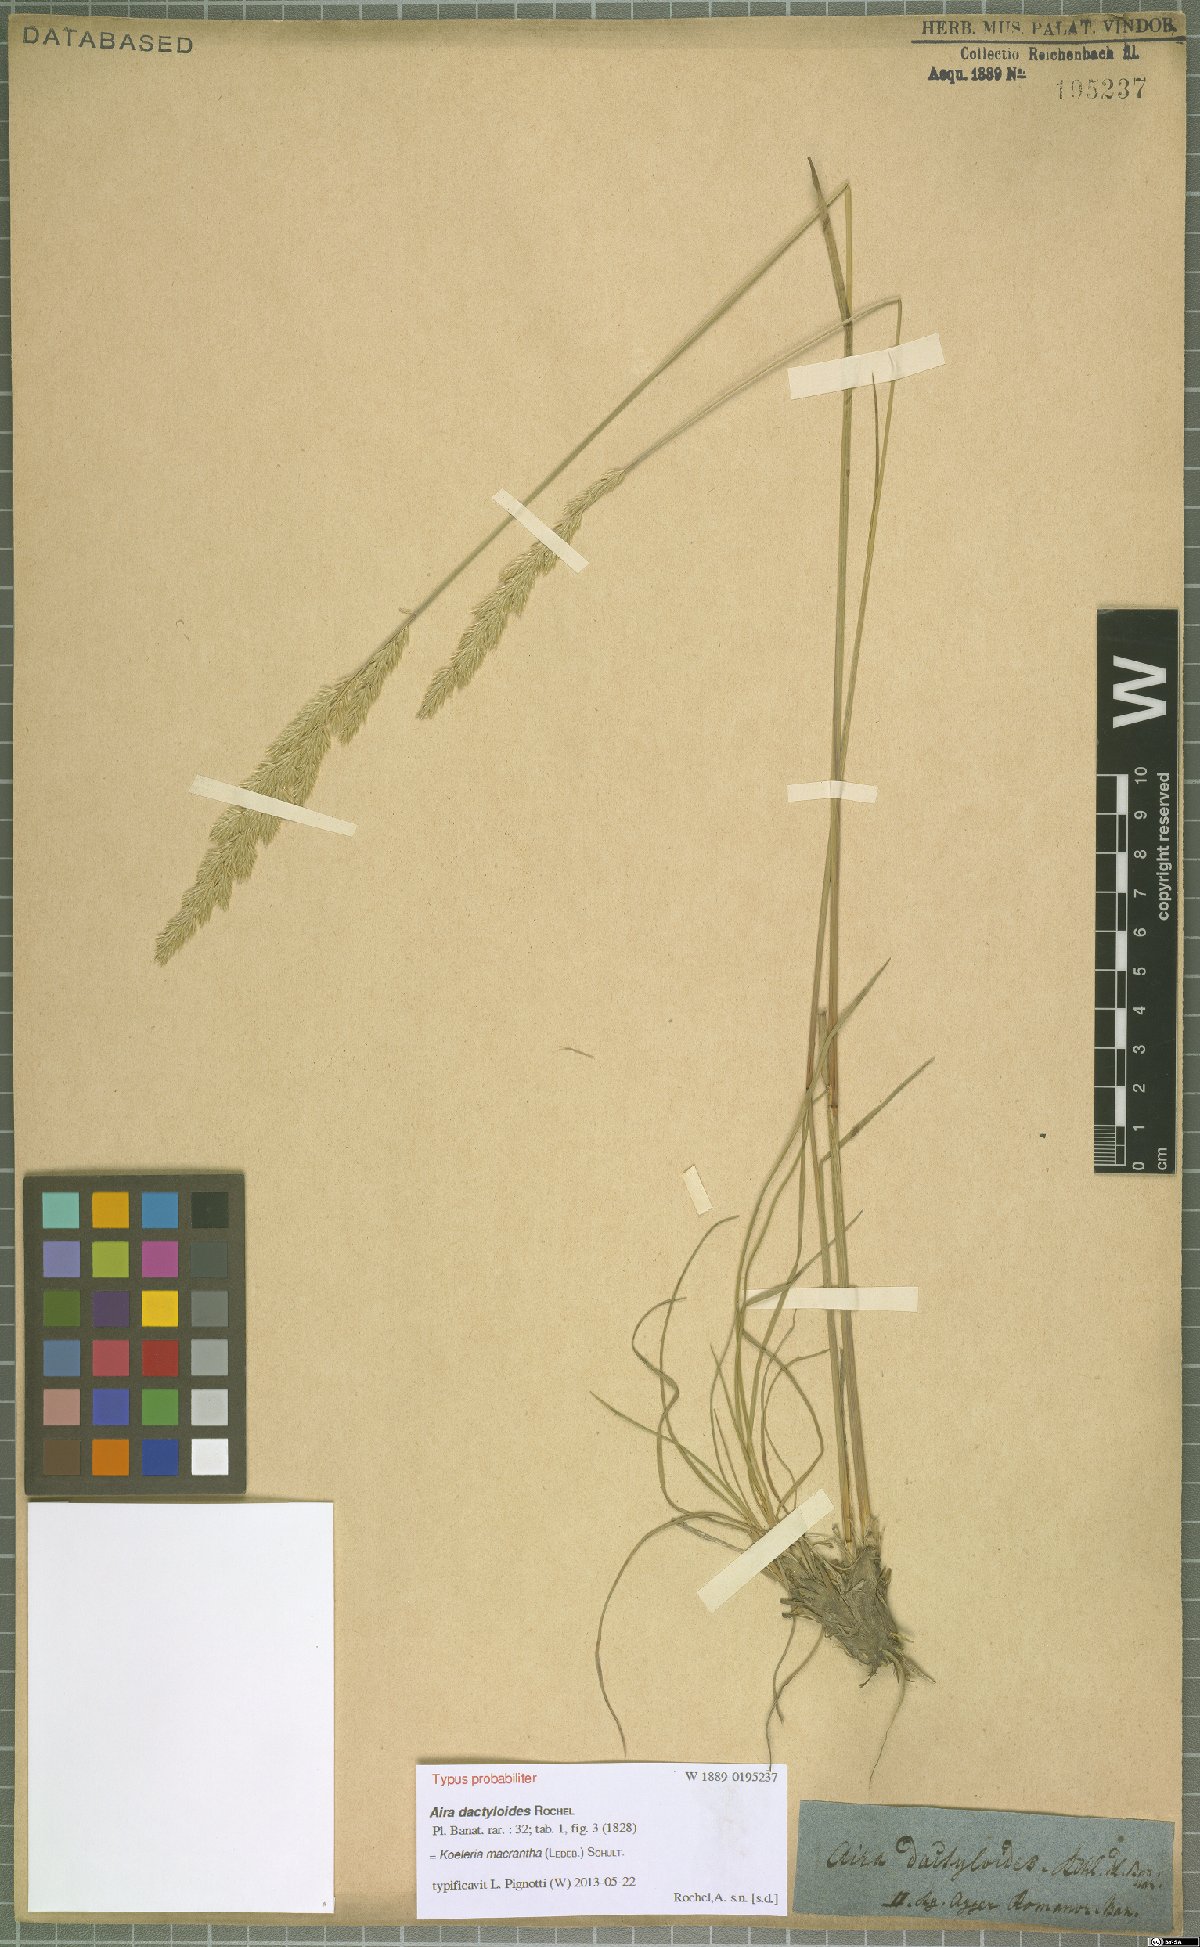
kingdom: Plantae
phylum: Tracheophyta
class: Liliopsida
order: Poales
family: Poaceae
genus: Koeleria
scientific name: Koeleria macrantha
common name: Crested hair-grass
